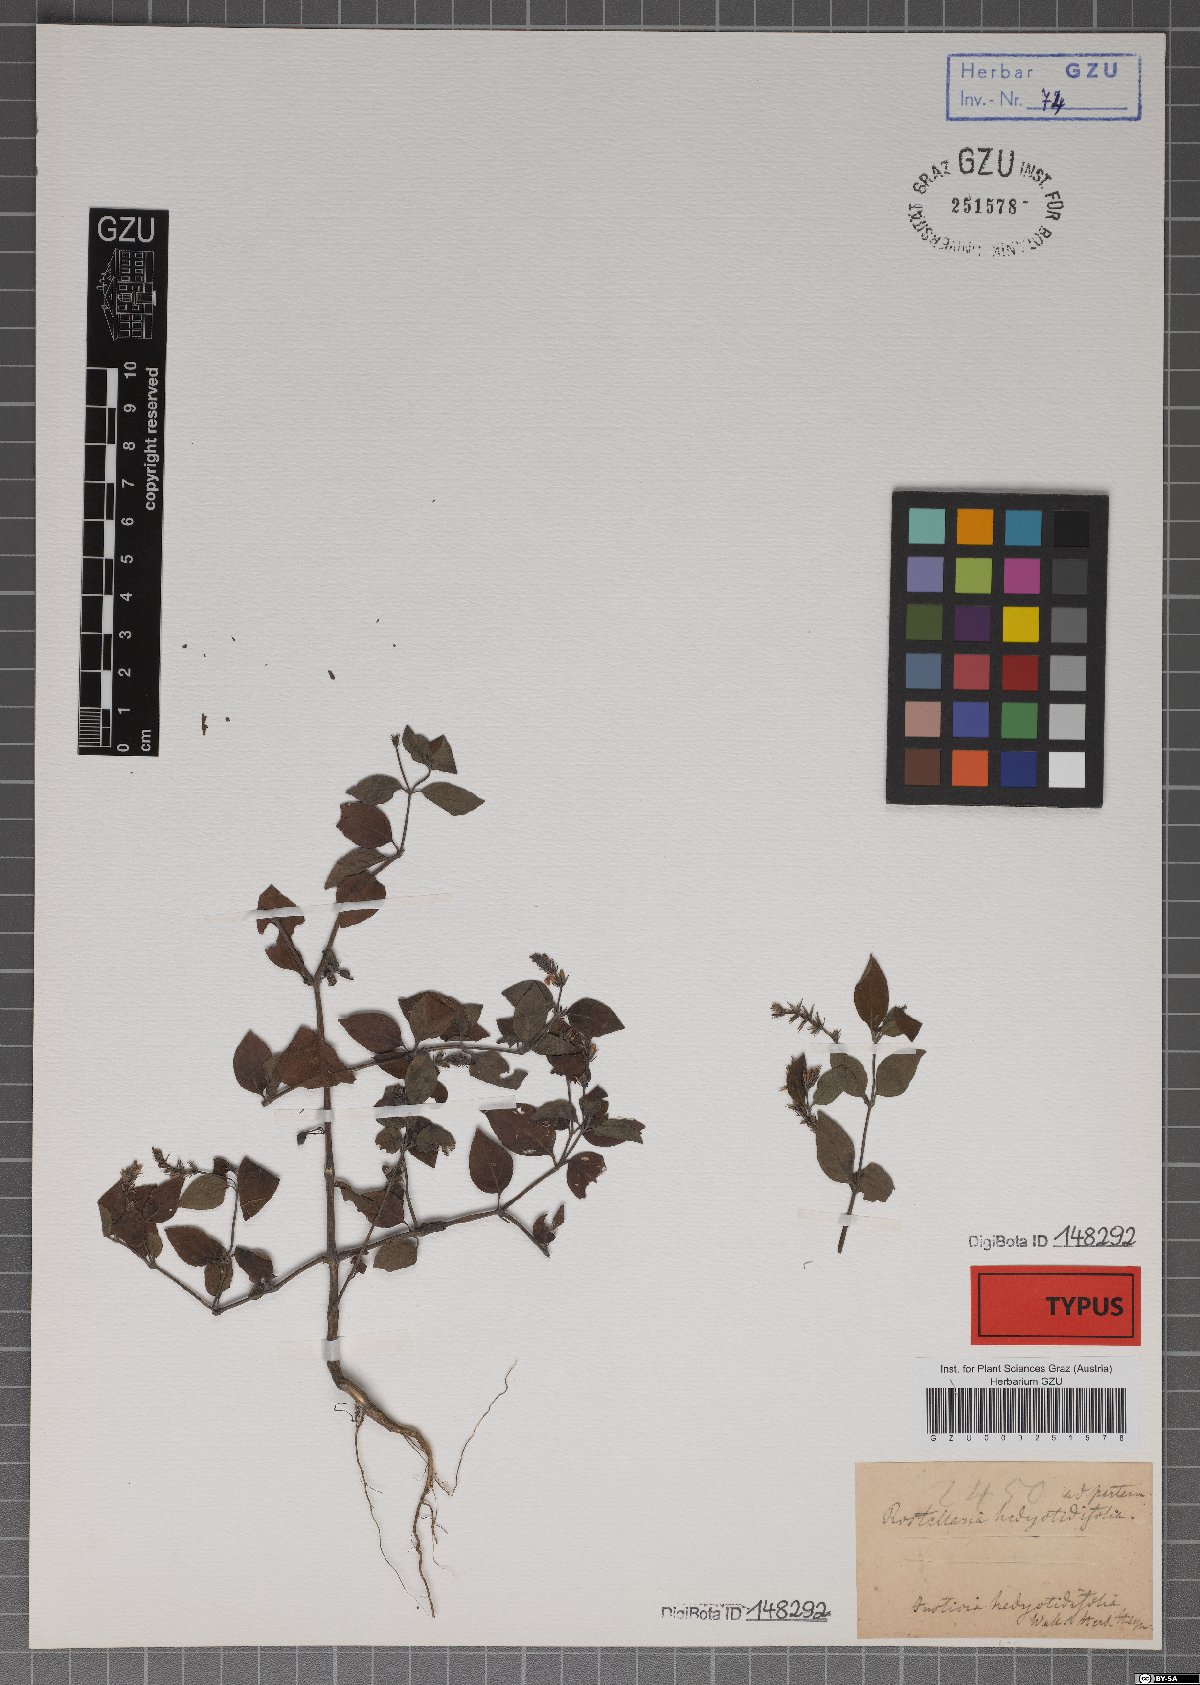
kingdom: Plantae
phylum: Tracheophyta
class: Magnoliopsida
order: Lamiales
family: Acanthaceae
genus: Rostellularia
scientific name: Rostellularia diffusa
